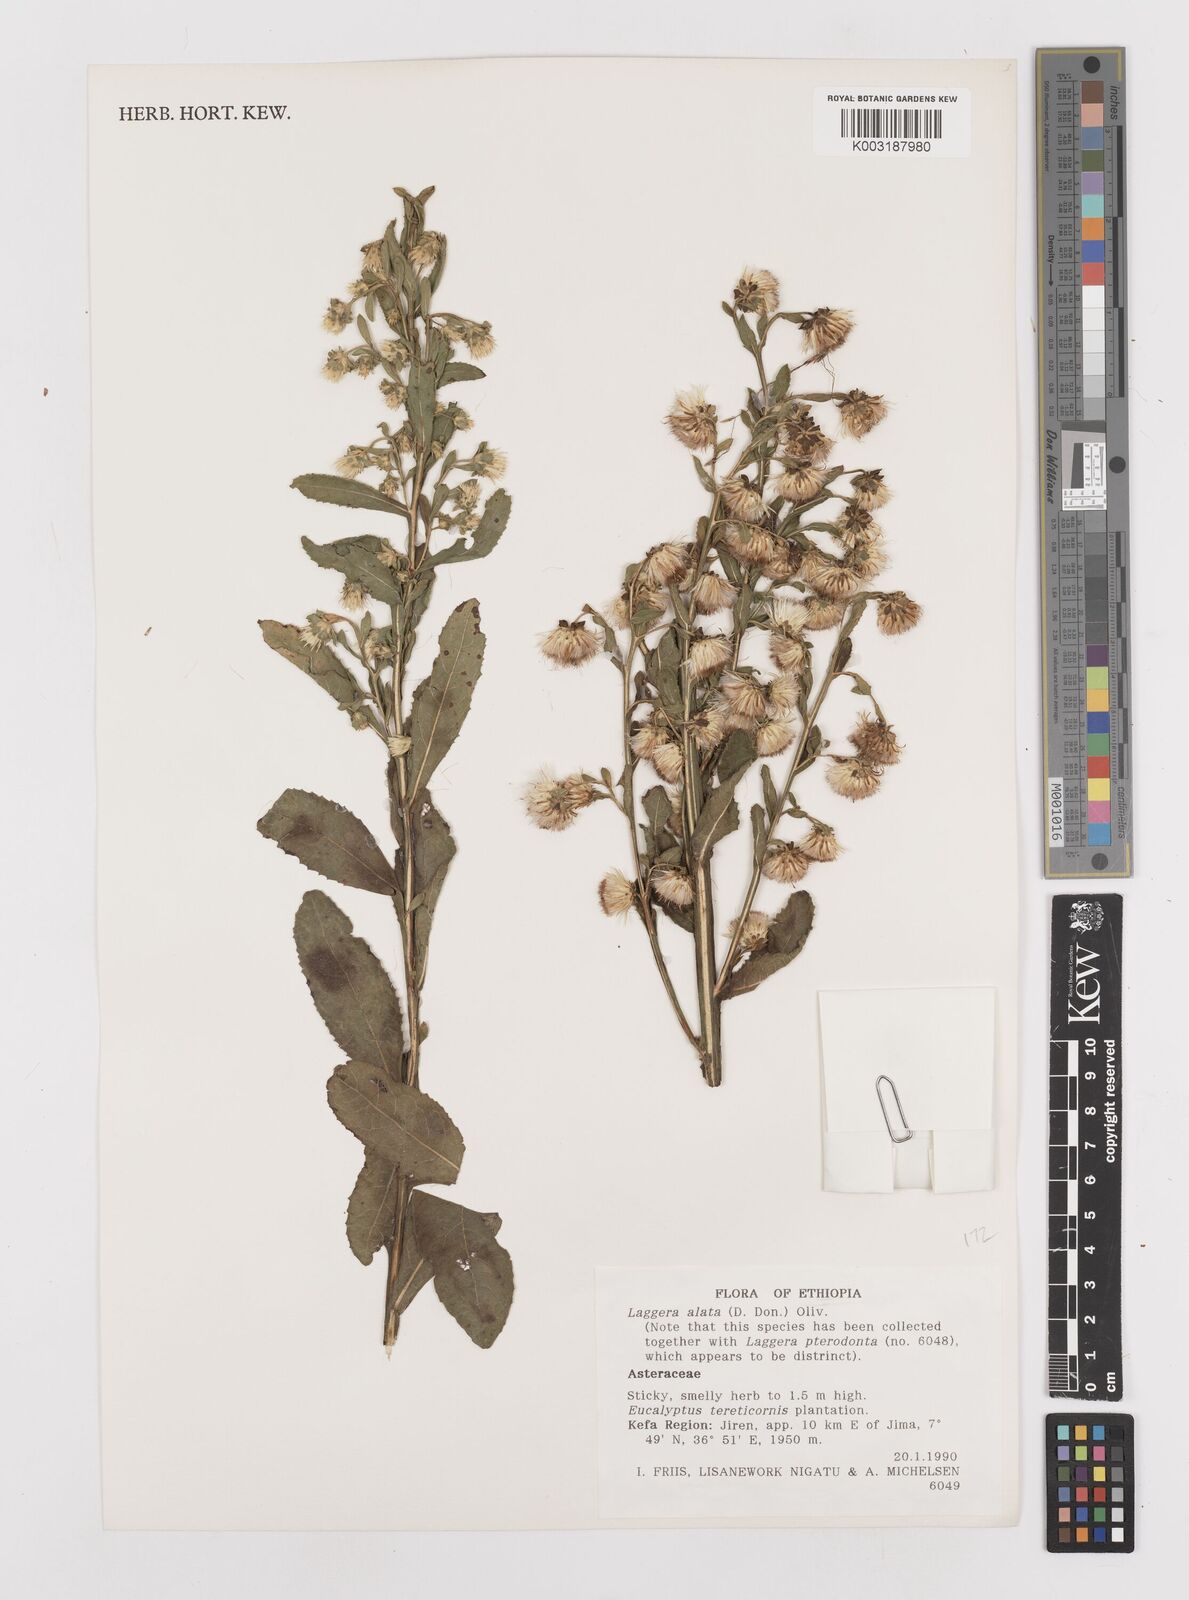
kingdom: Plantae
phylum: Tracheophyta
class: Magnoliopsida
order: Asterales
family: Asteraceae
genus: Laggera
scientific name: Laggera crispata
